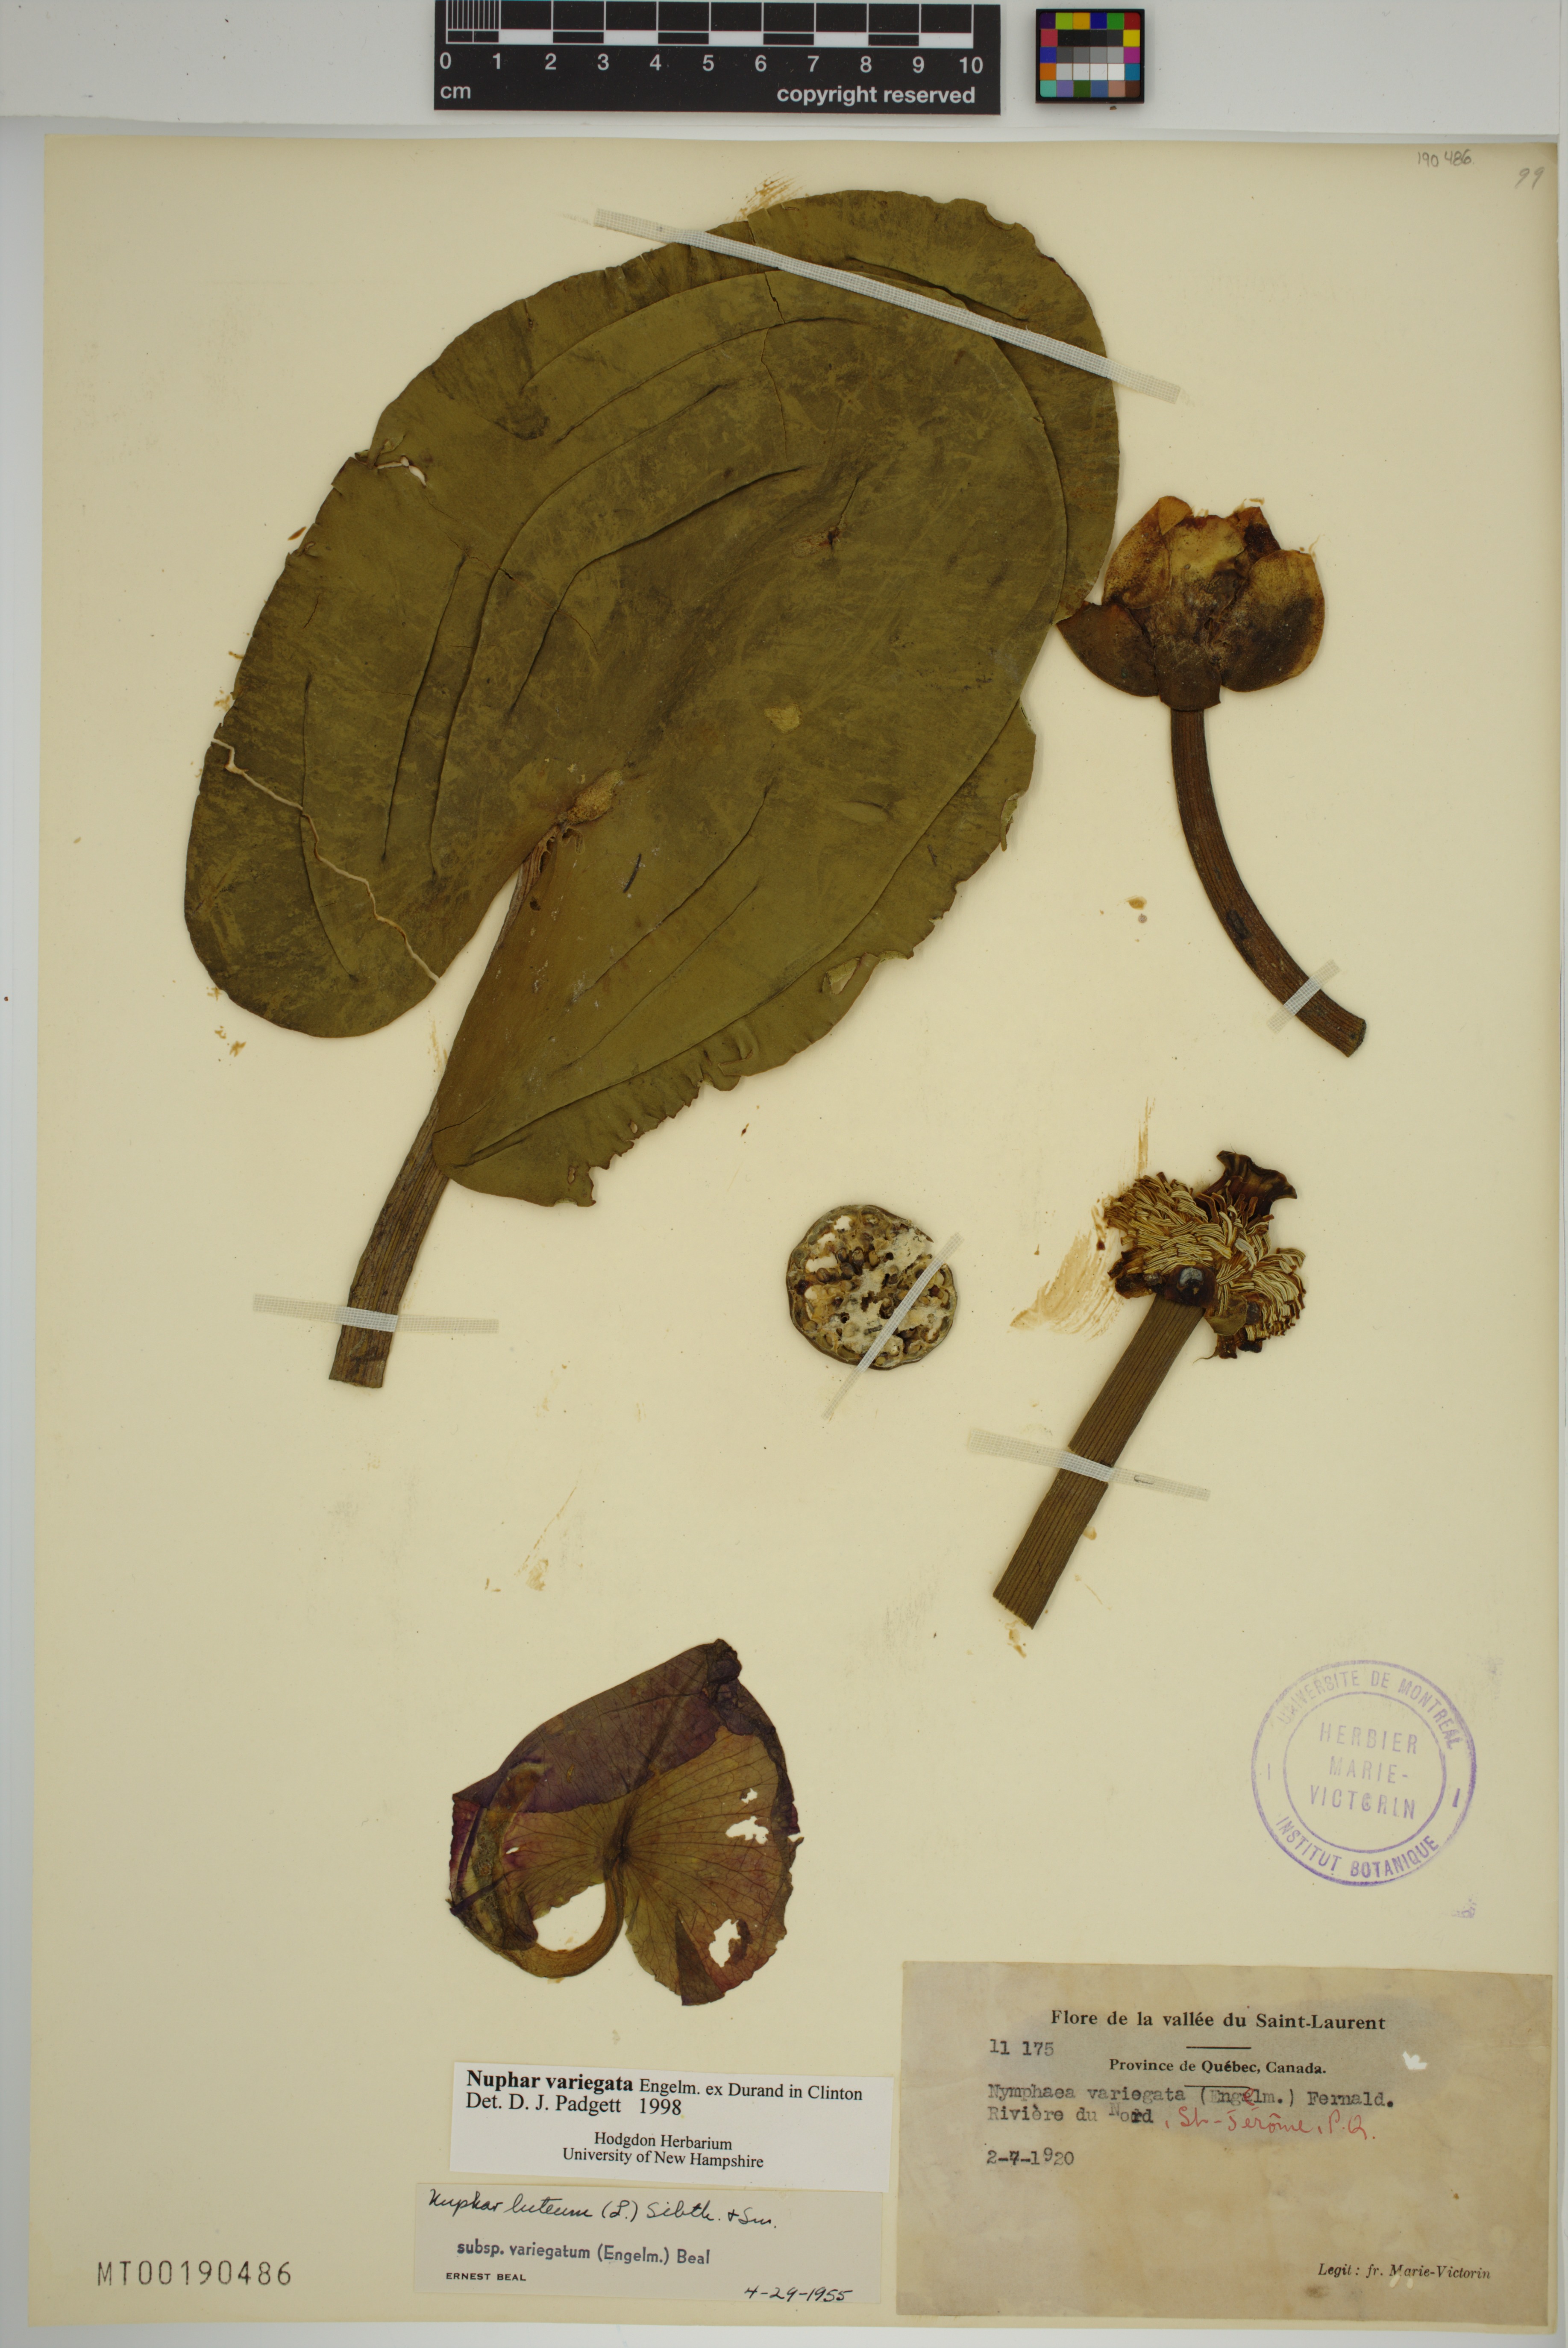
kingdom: Plantae
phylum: Tracheophyta
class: Magnoliopsida
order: Nymphaeales
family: Nymphaeaceae
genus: Nuphar
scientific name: Nuphar variegata
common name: Beaver-root
